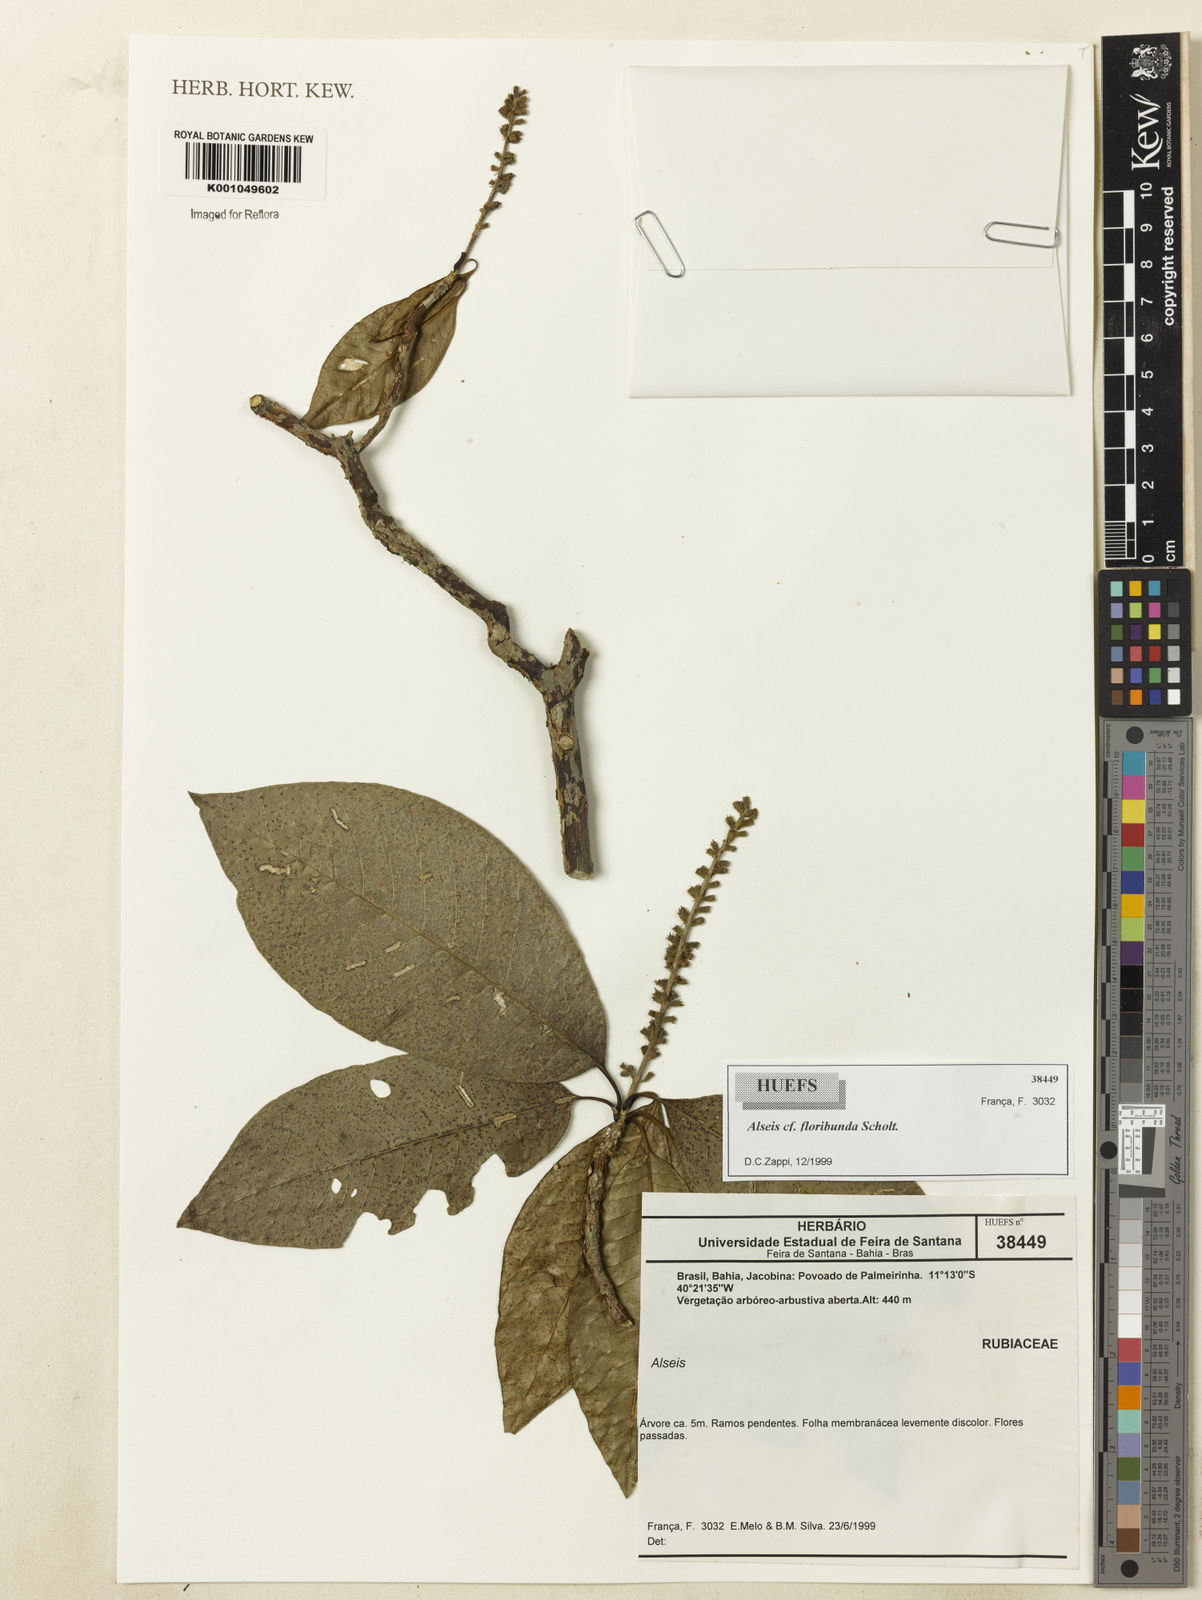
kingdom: Plantae
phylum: Tracheophyta
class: Magnoliopsida
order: Gentianales
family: Rubiaceae
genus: Alseis
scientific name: Alseis floribunda
